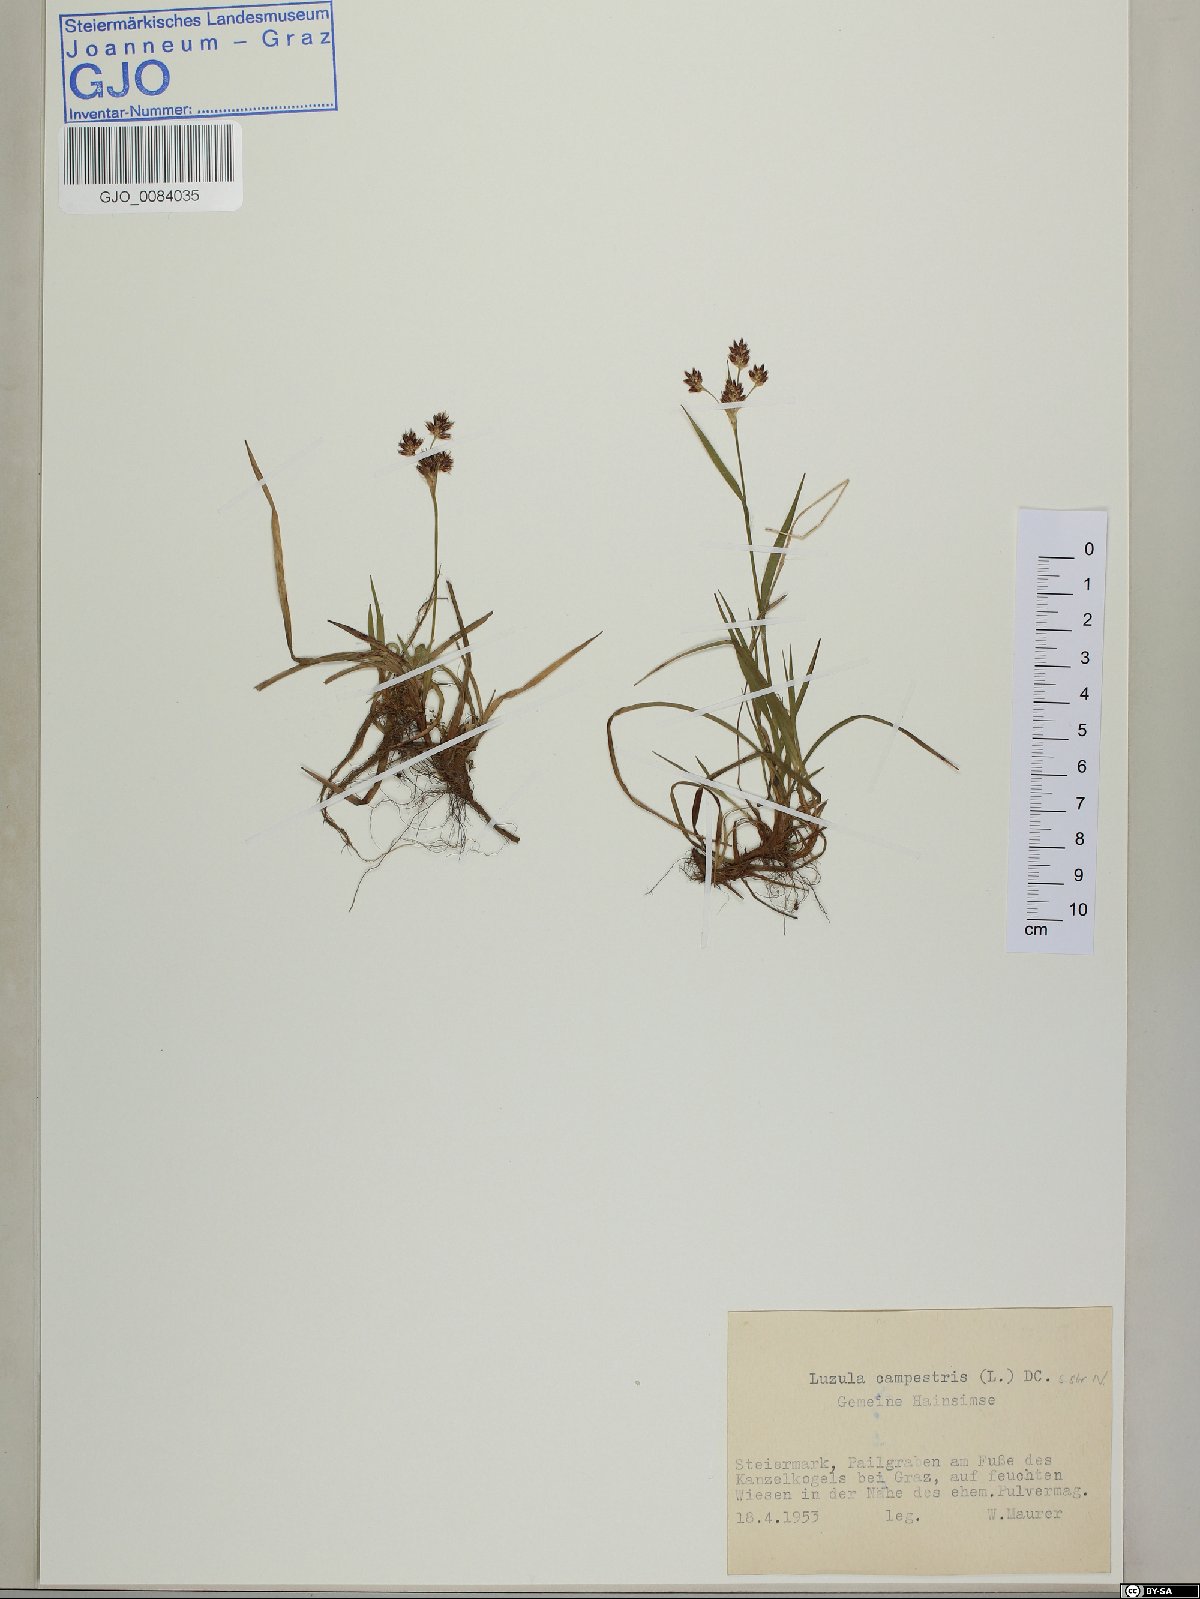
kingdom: Plantae
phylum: Tracheophyta
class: Liliopsida
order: Poales
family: Juncaceae
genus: Luzula
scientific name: Luzula campestris
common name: Field wood-rush
